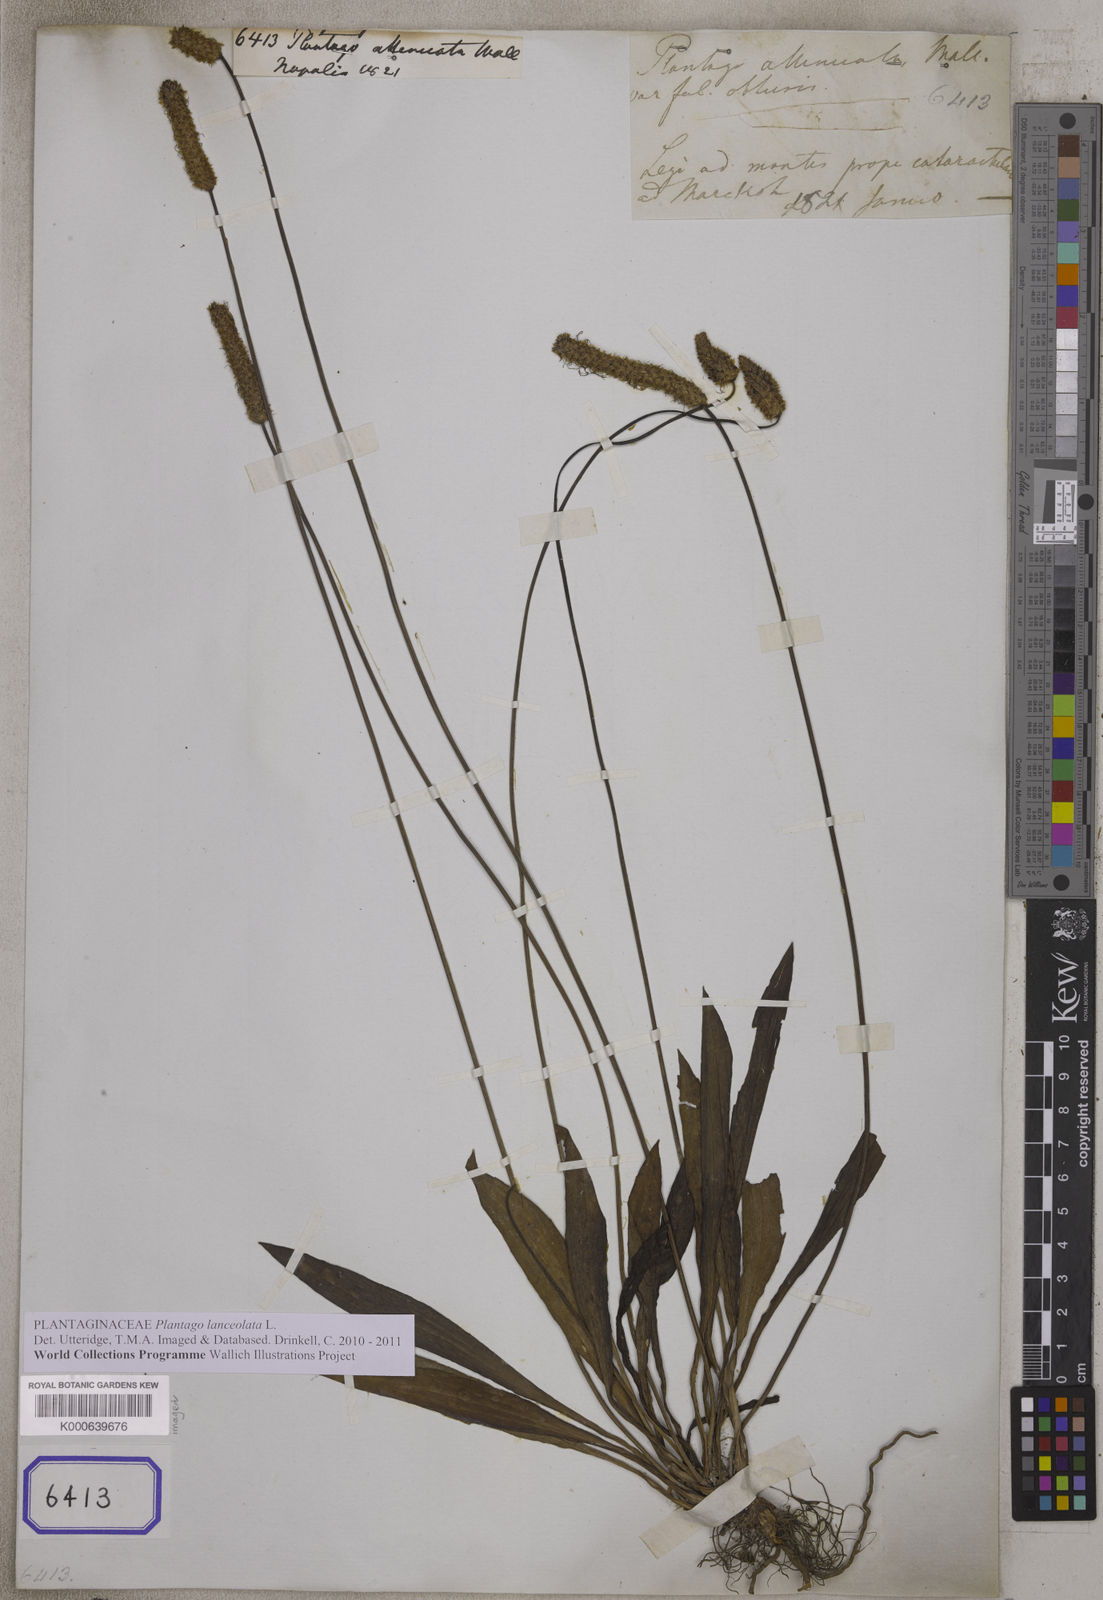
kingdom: Plantae
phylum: Tracheophyta
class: Magnoliopsida
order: Lamiales
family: Plantaginaceae
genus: Plantago
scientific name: Plantago lanceolata
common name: Ribwort plantain
